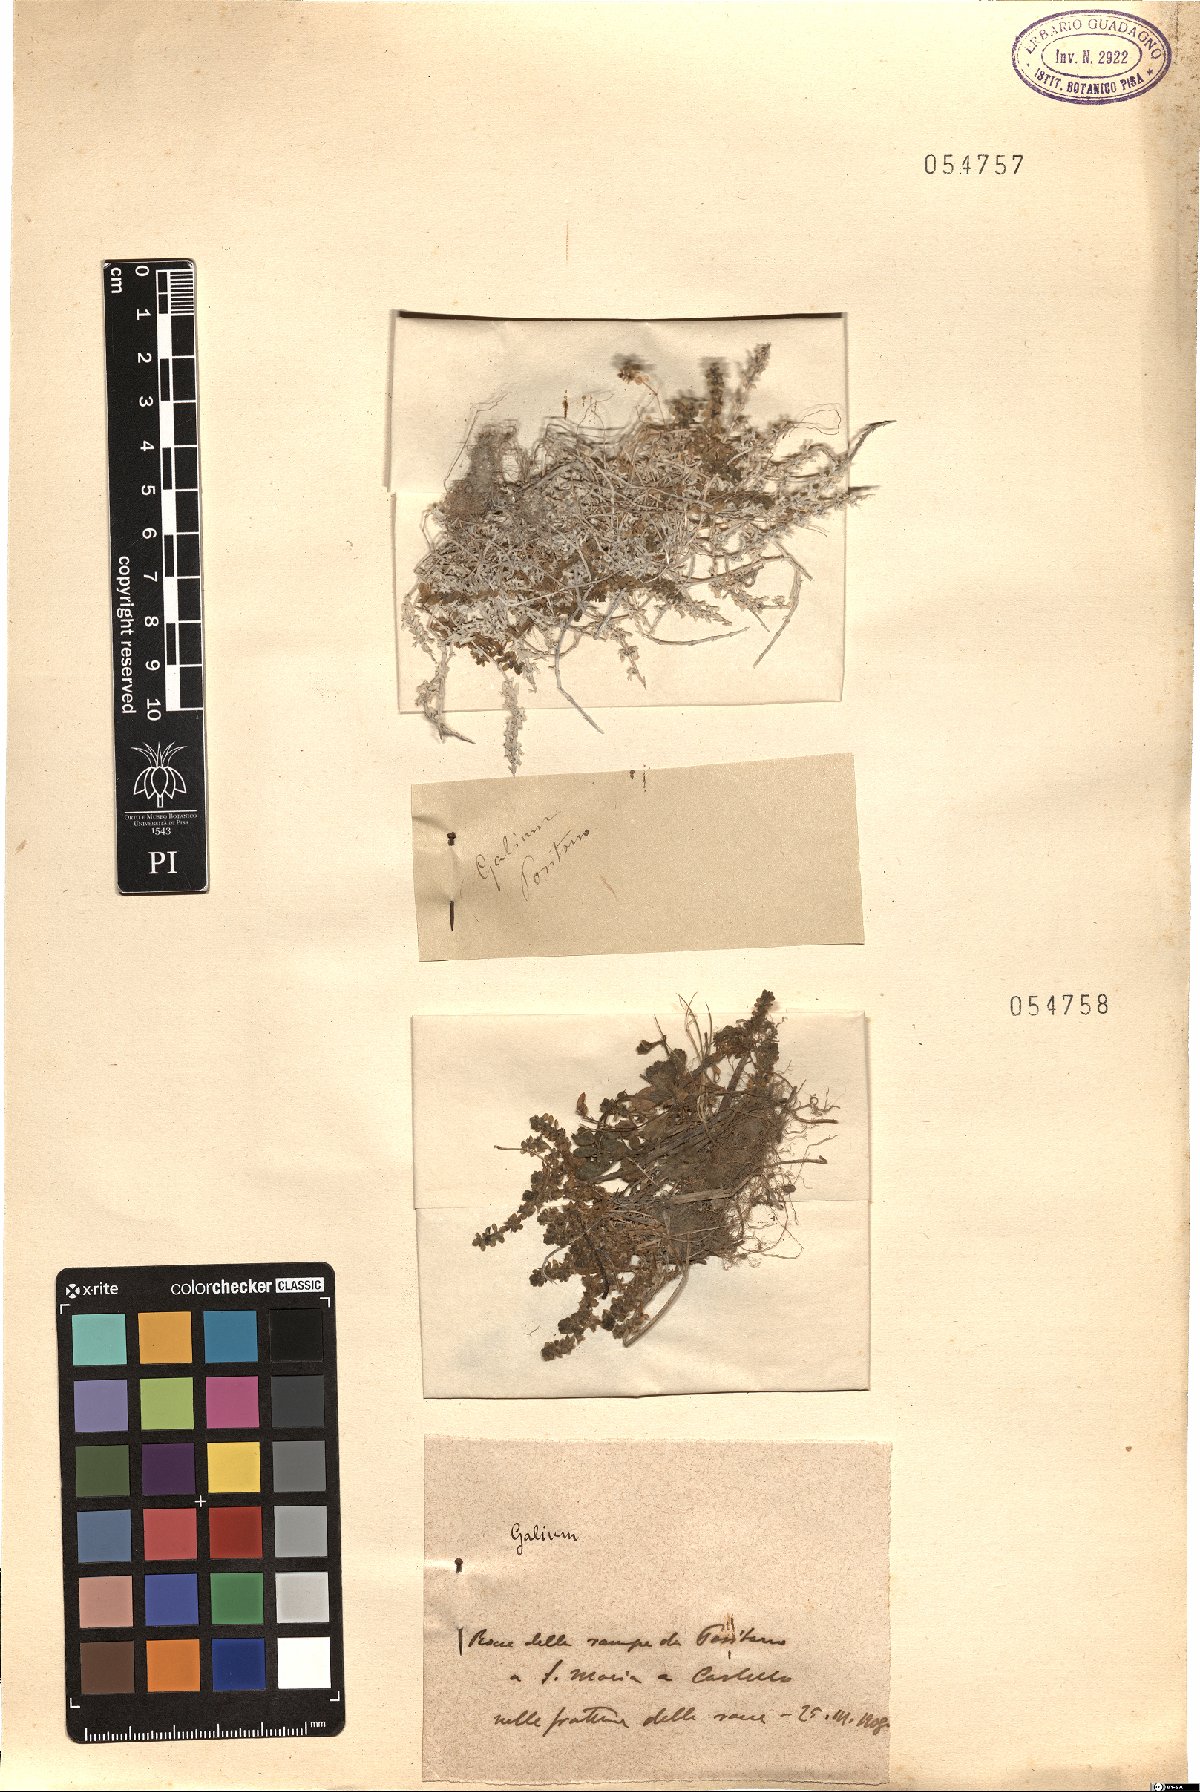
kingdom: Plantae
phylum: Tracheophyta
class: Magnoliopsida
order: Gentianales
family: Rubiaceae
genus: Galium
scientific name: Galium
